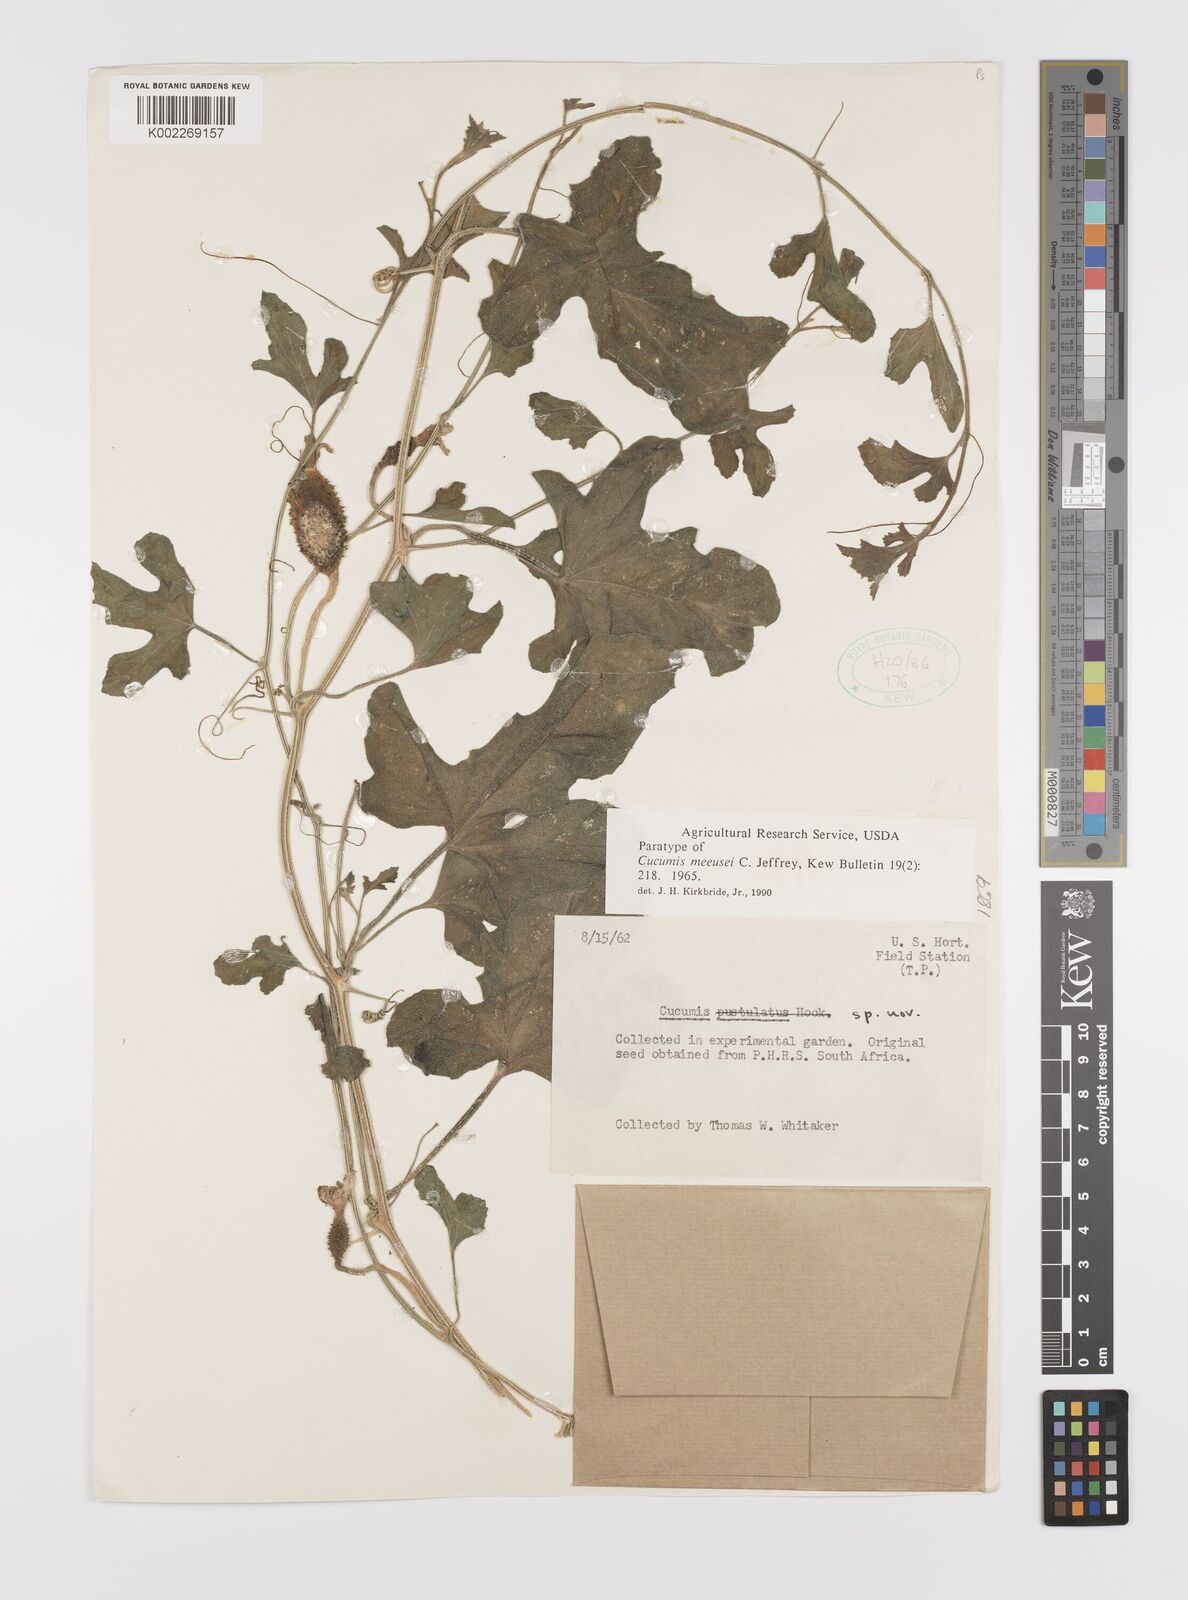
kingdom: Plantae
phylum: Tracheophyta
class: Magnoliopsida
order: Cucurbitales
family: Cucurbitaceae
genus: Cucumis
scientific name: Cucumis meeusei
